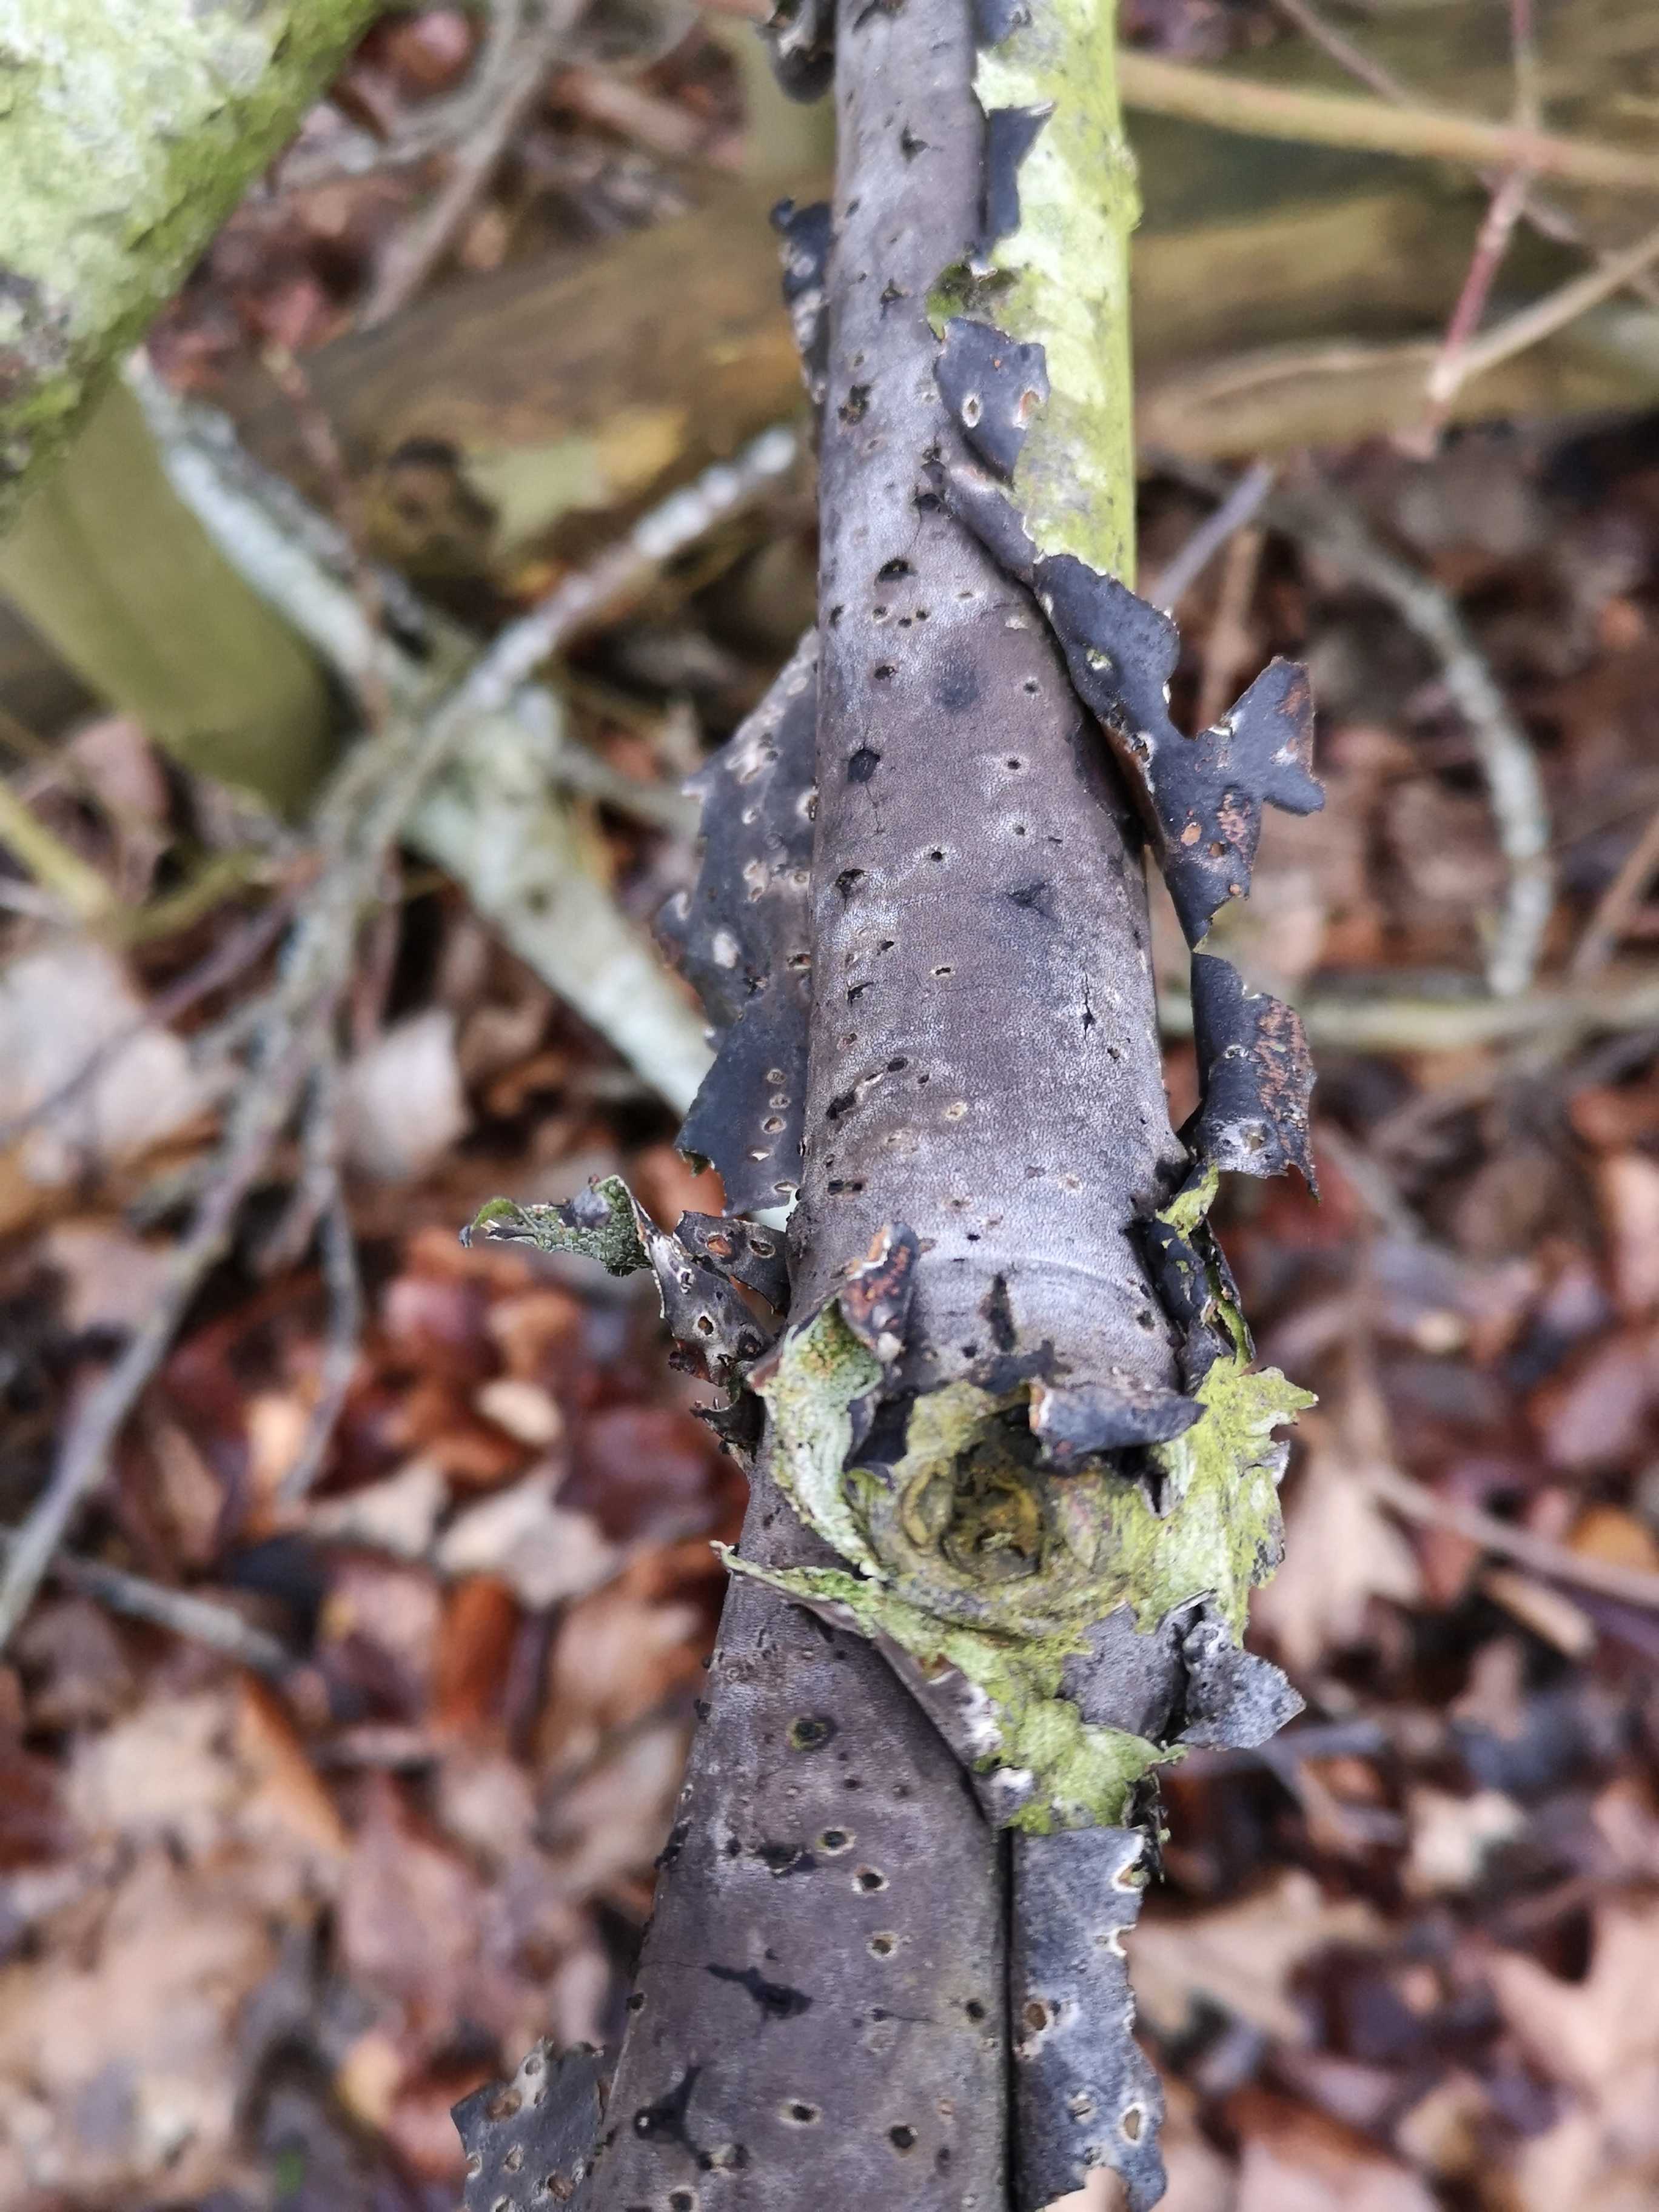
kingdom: Fungi
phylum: Basidiomycota
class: Agaricomycetes
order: Corticiales
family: Vuilleminiaceae
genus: Vuilleminia
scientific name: Vuilleminia comedens
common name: almindelig barksprænger
